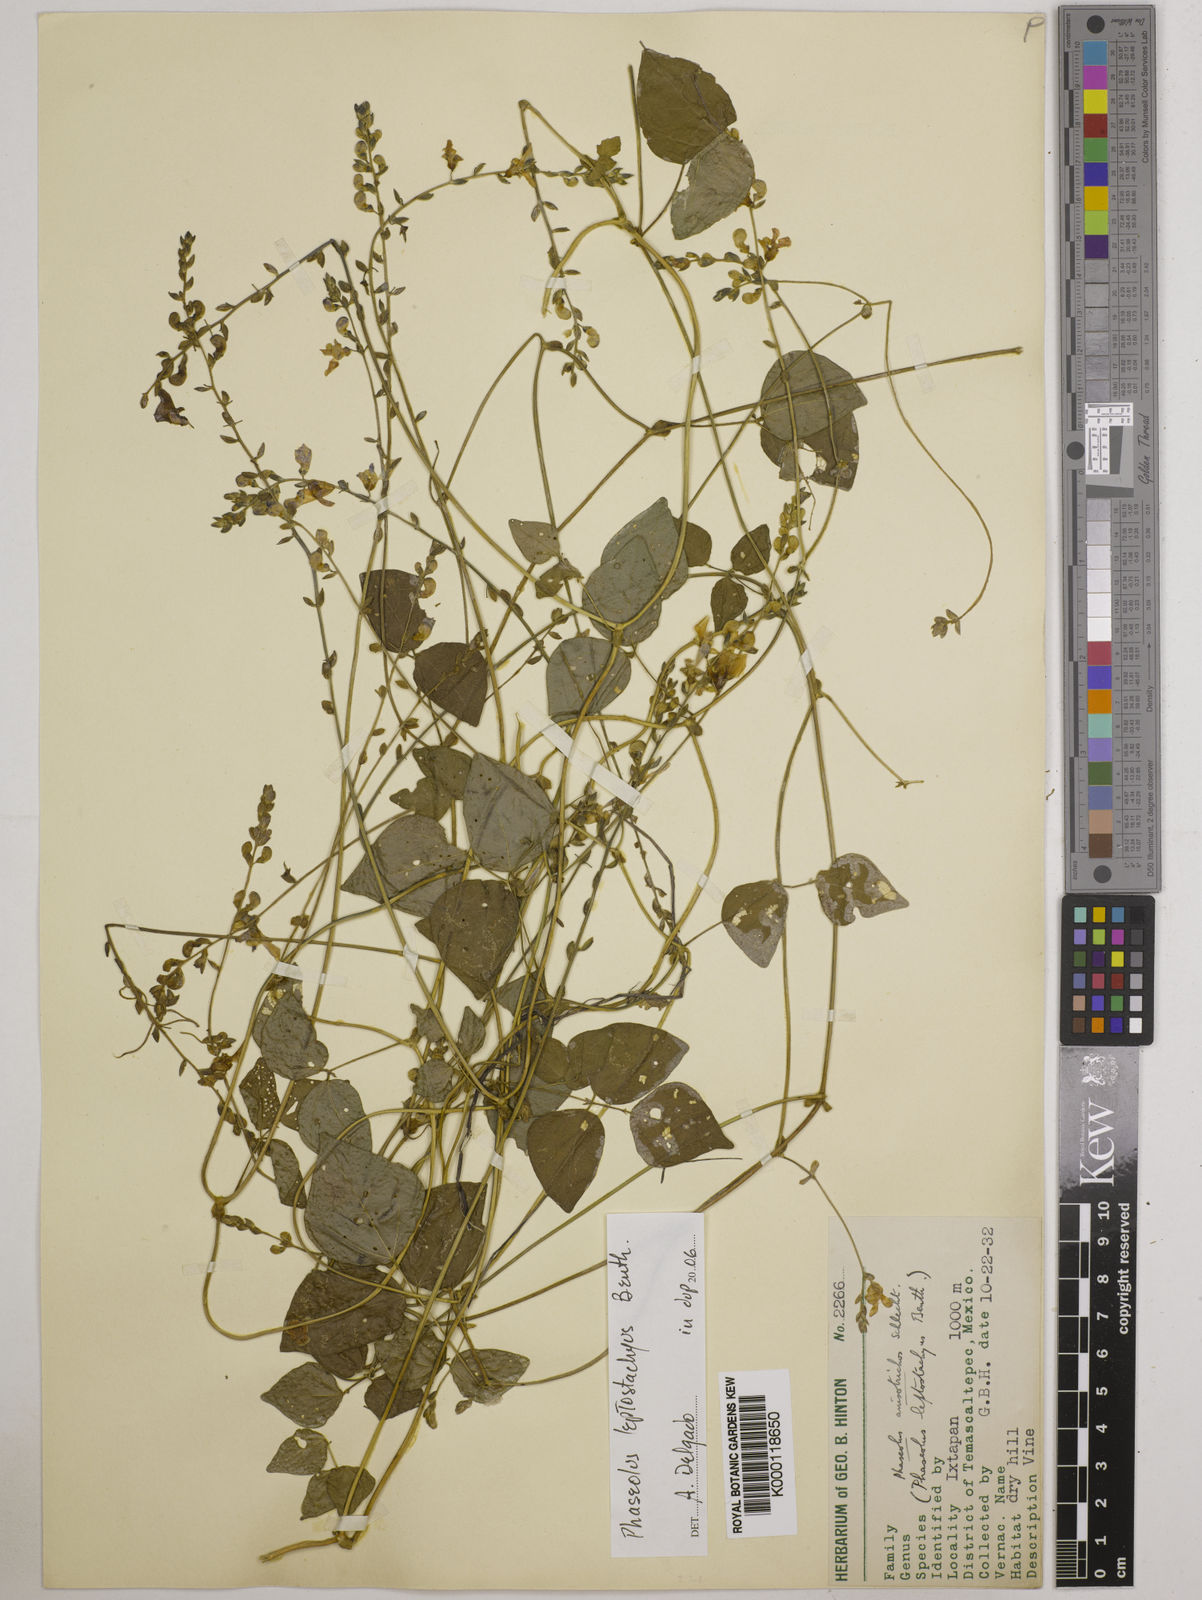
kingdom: Plantae
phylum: Tracheophyta
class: Magnoliopsida
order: Fabales
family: Fabaceae
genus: Phaseolus
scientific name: Phaseolus
